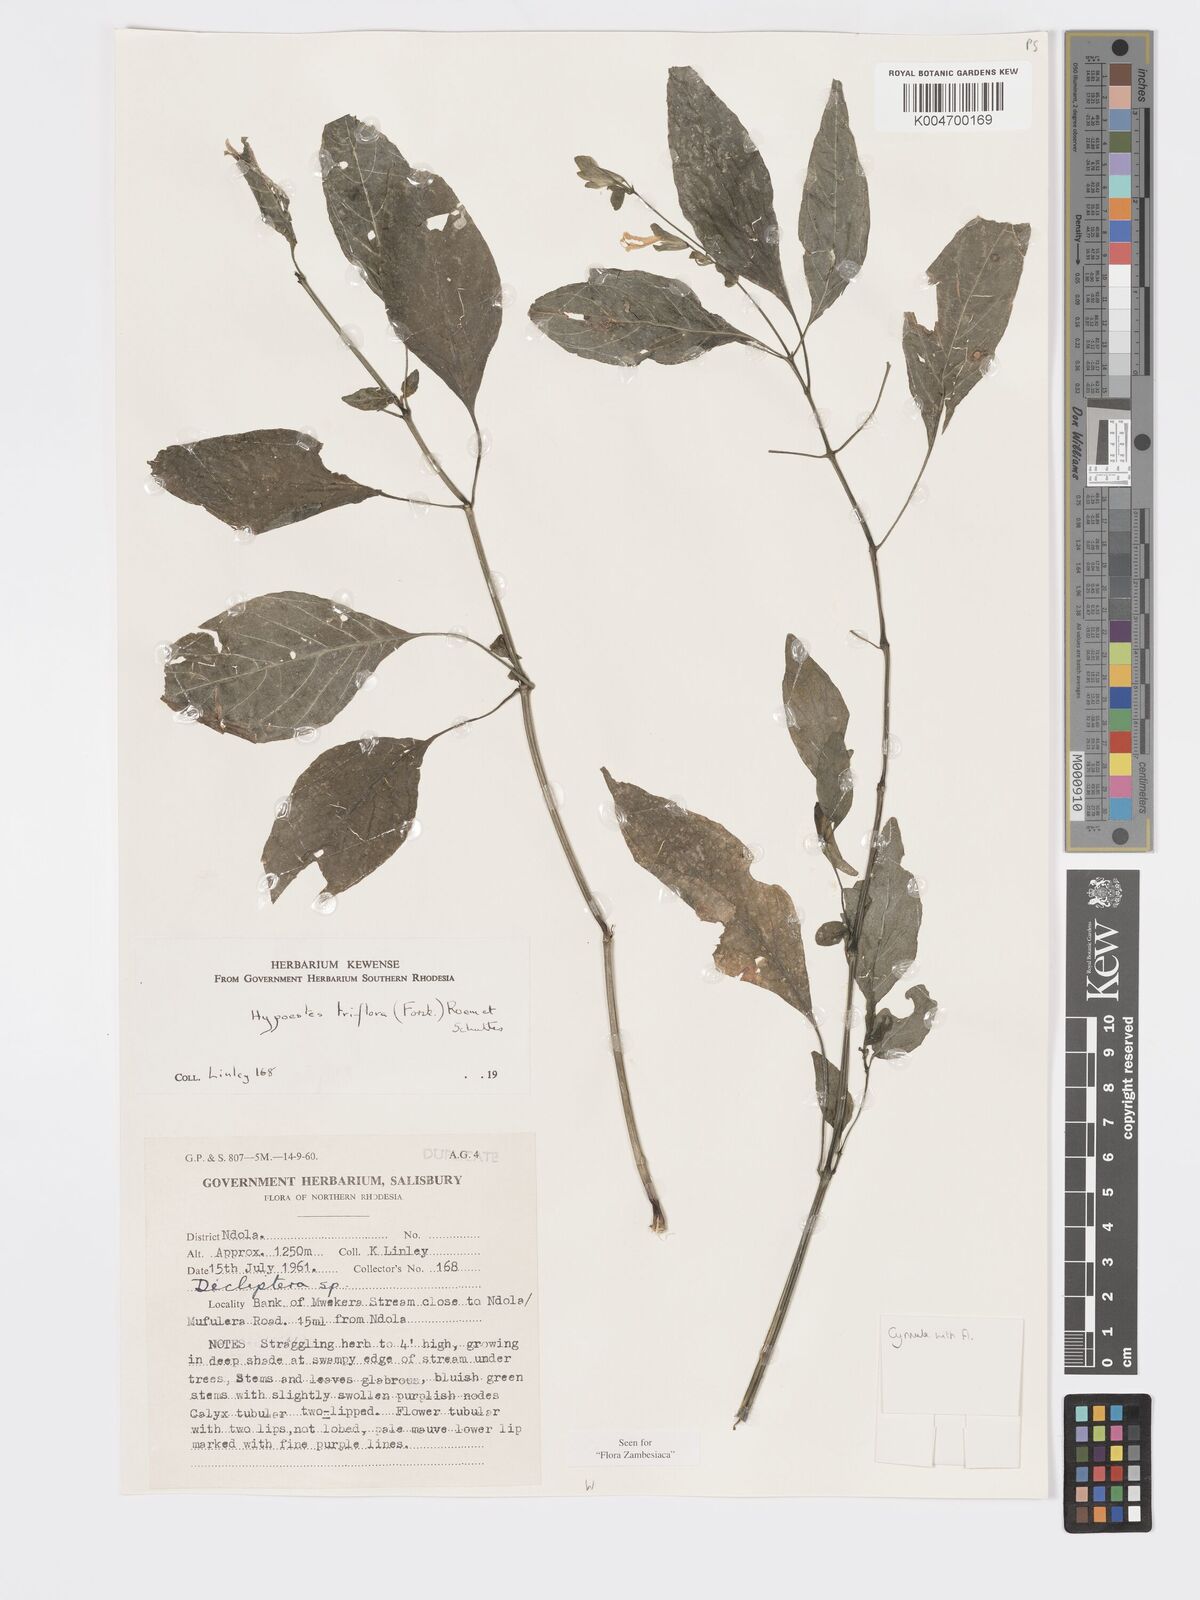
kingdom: Plantae
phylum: Tracheophyta
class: Magnoliopsida
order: Lamiales
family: Acanthaceae
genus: Hypoestes
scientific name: Hypoestes triflora
